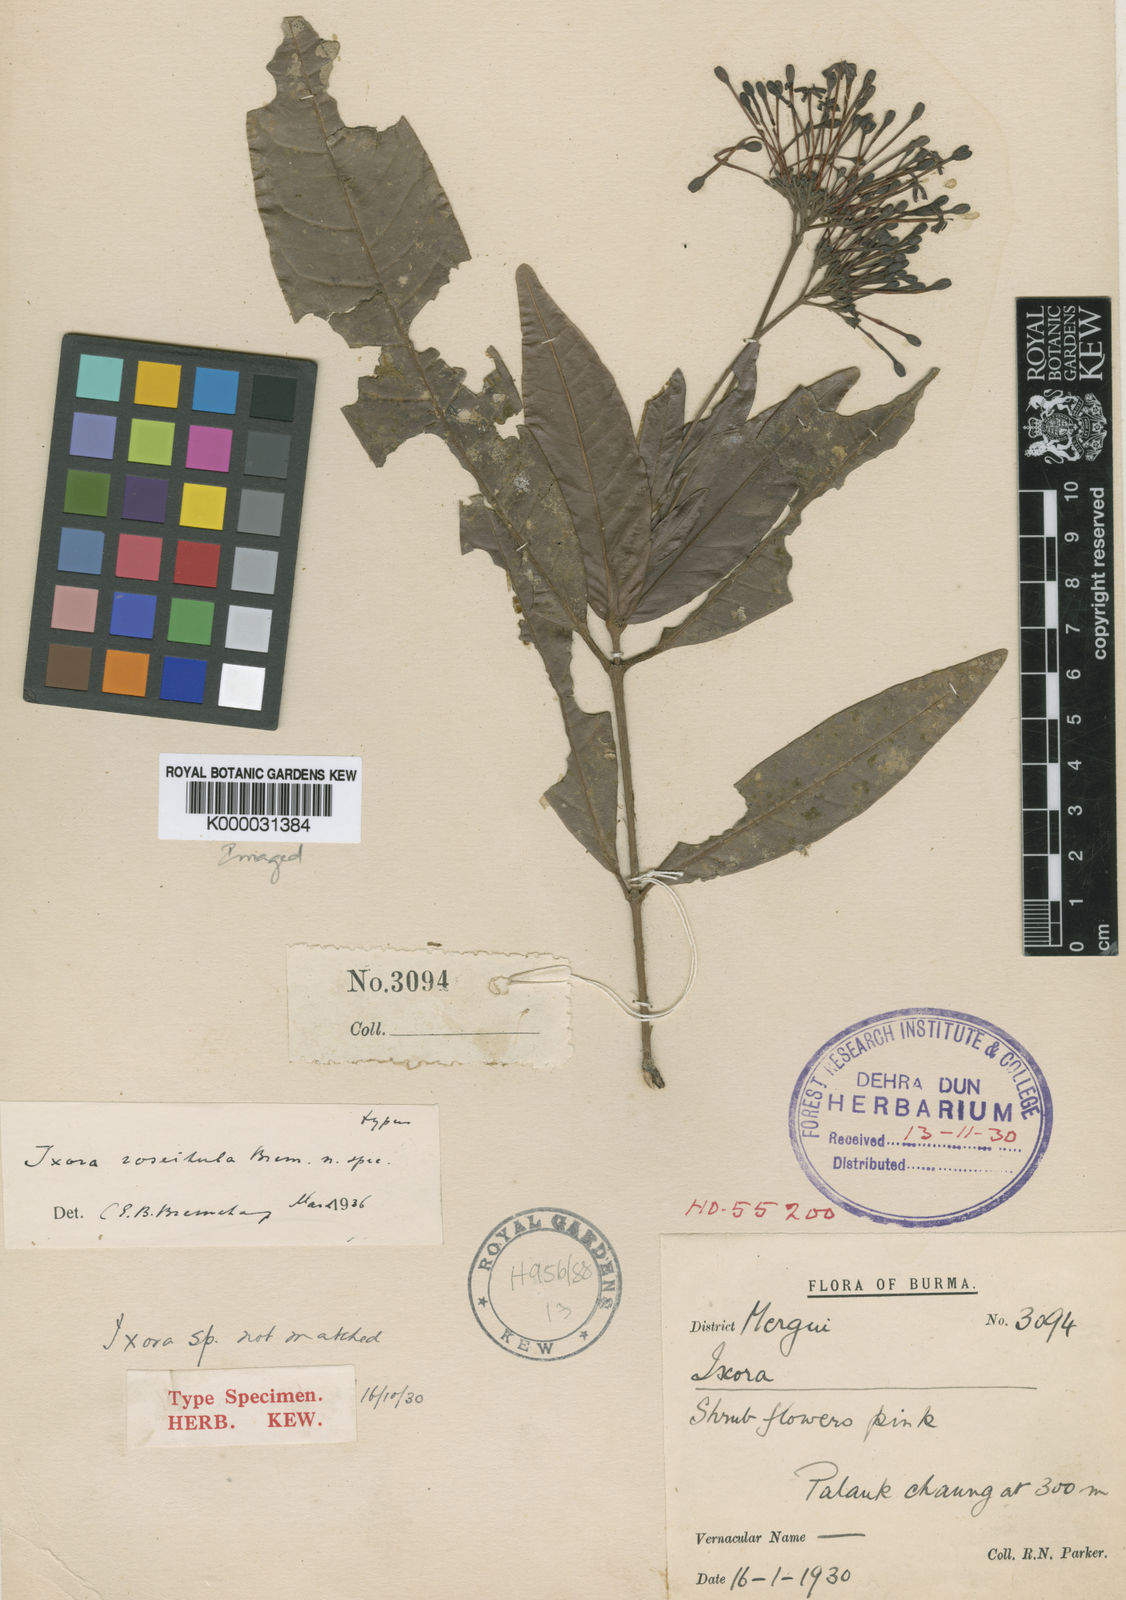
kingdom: Plantae
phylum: Tracheophyta
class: Magnoliopsida
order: Gentianales
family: Rubiaceae
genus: Ixora
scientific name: Ixora
